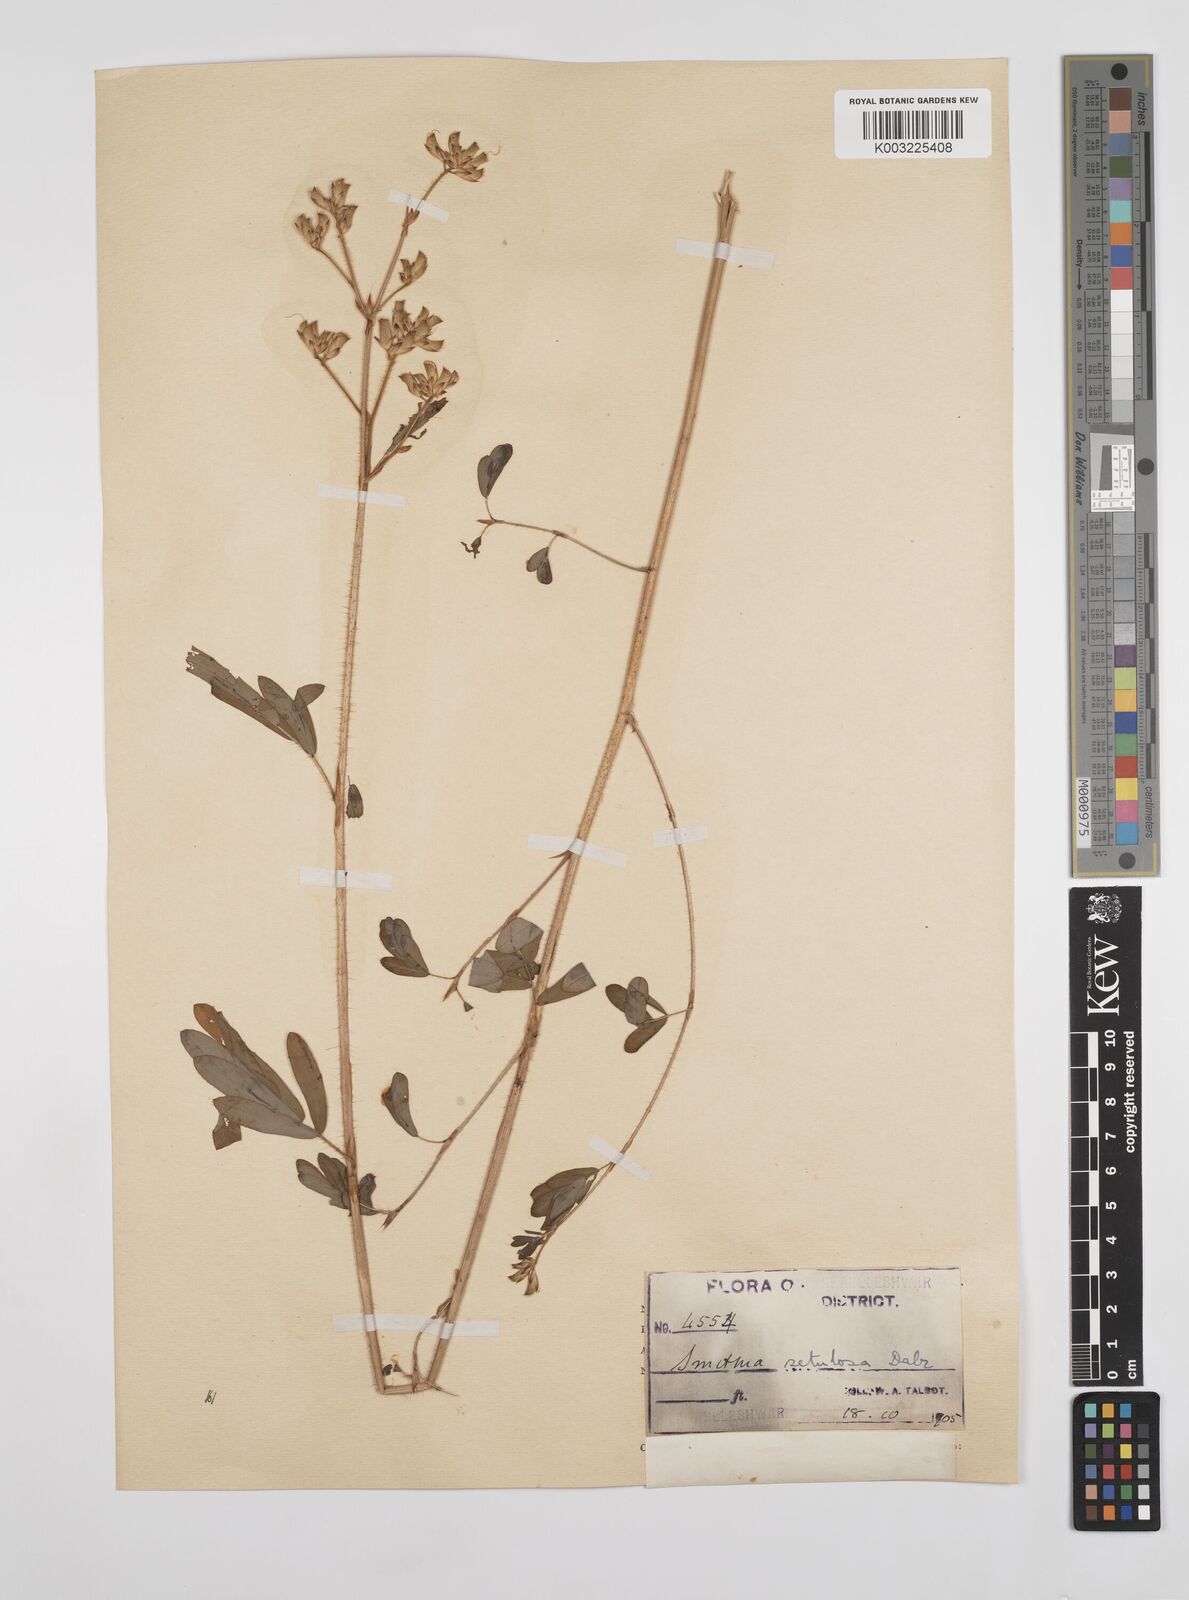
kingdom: Plantae
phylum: Tracheophyta
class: Magnoliopsida
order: Fabales
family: Fabaceae
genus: Smithia
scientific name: Smithia setulosa
